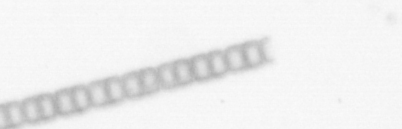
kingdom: Chromista
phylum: Ochrophyta
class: Bacillariophyceae
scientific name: Bacillariophyceae
